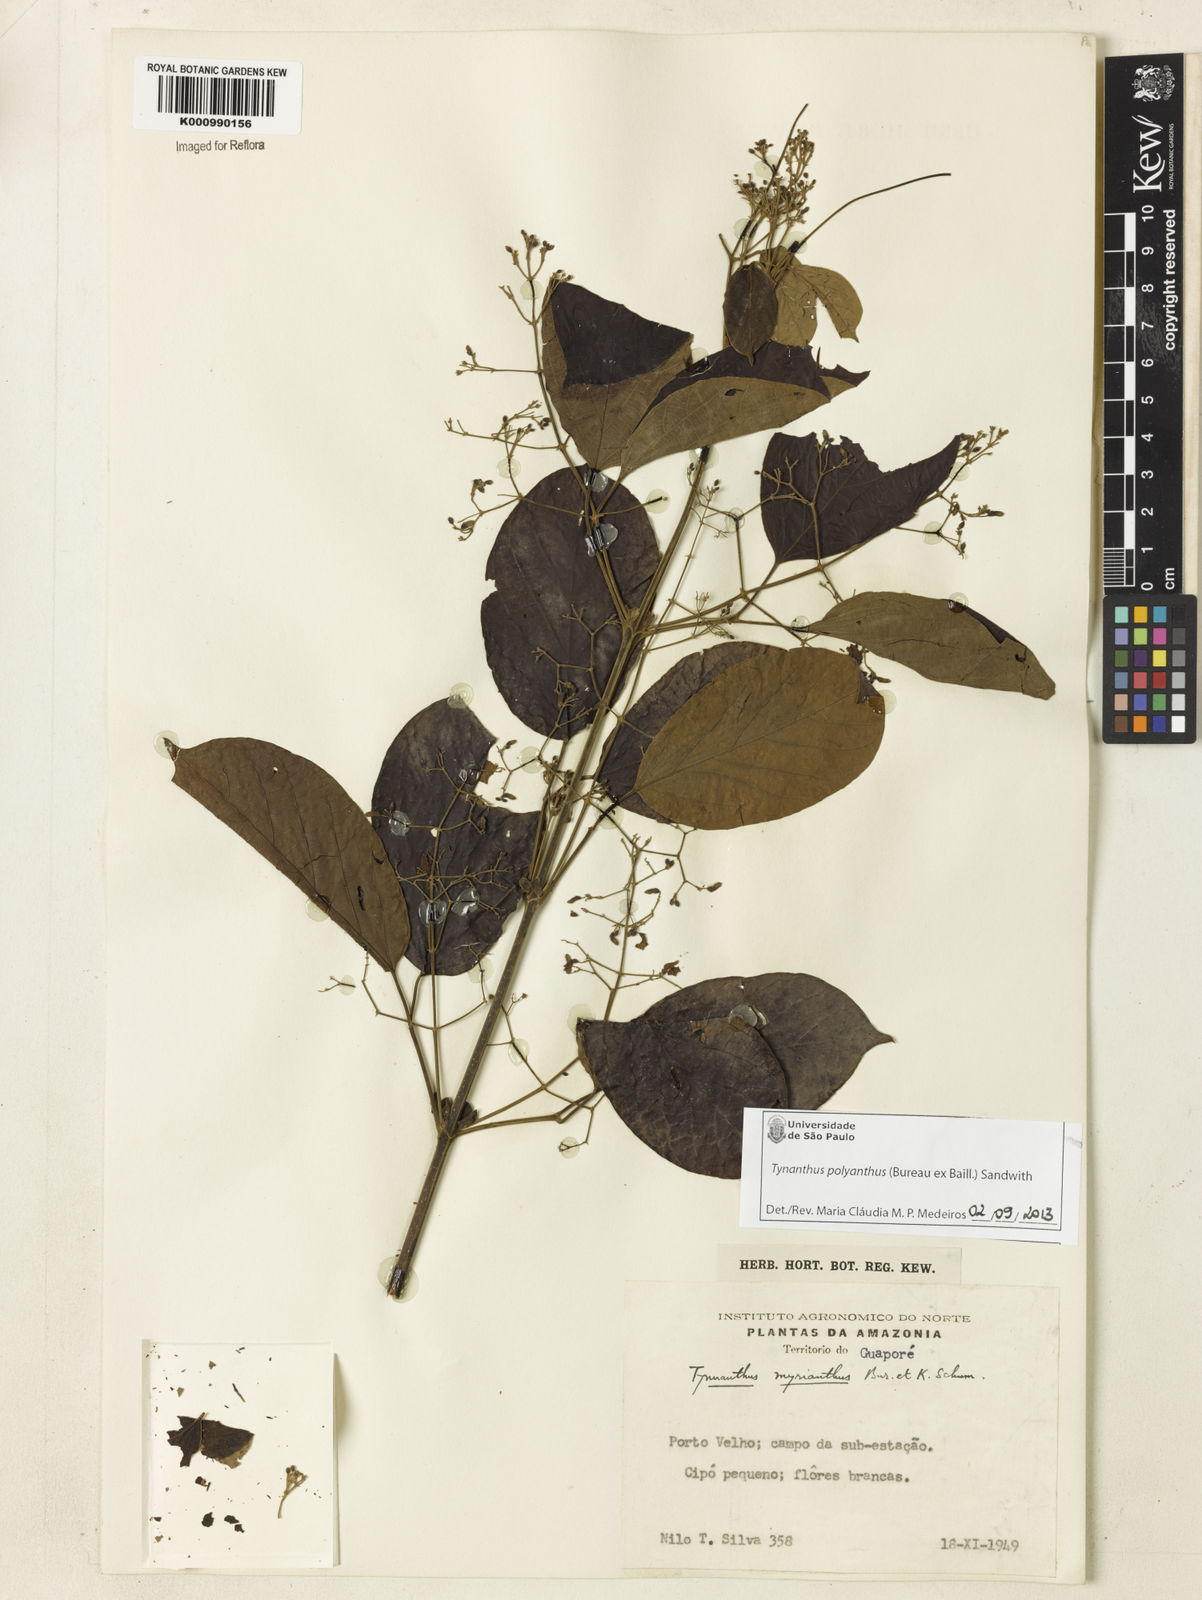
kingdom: Plantae
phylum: Tracheophyta
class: Magnoliopsida
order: Lamiales
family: Bignoniaceae
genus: Tynanthus
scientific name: Tynanthus polyanthus
